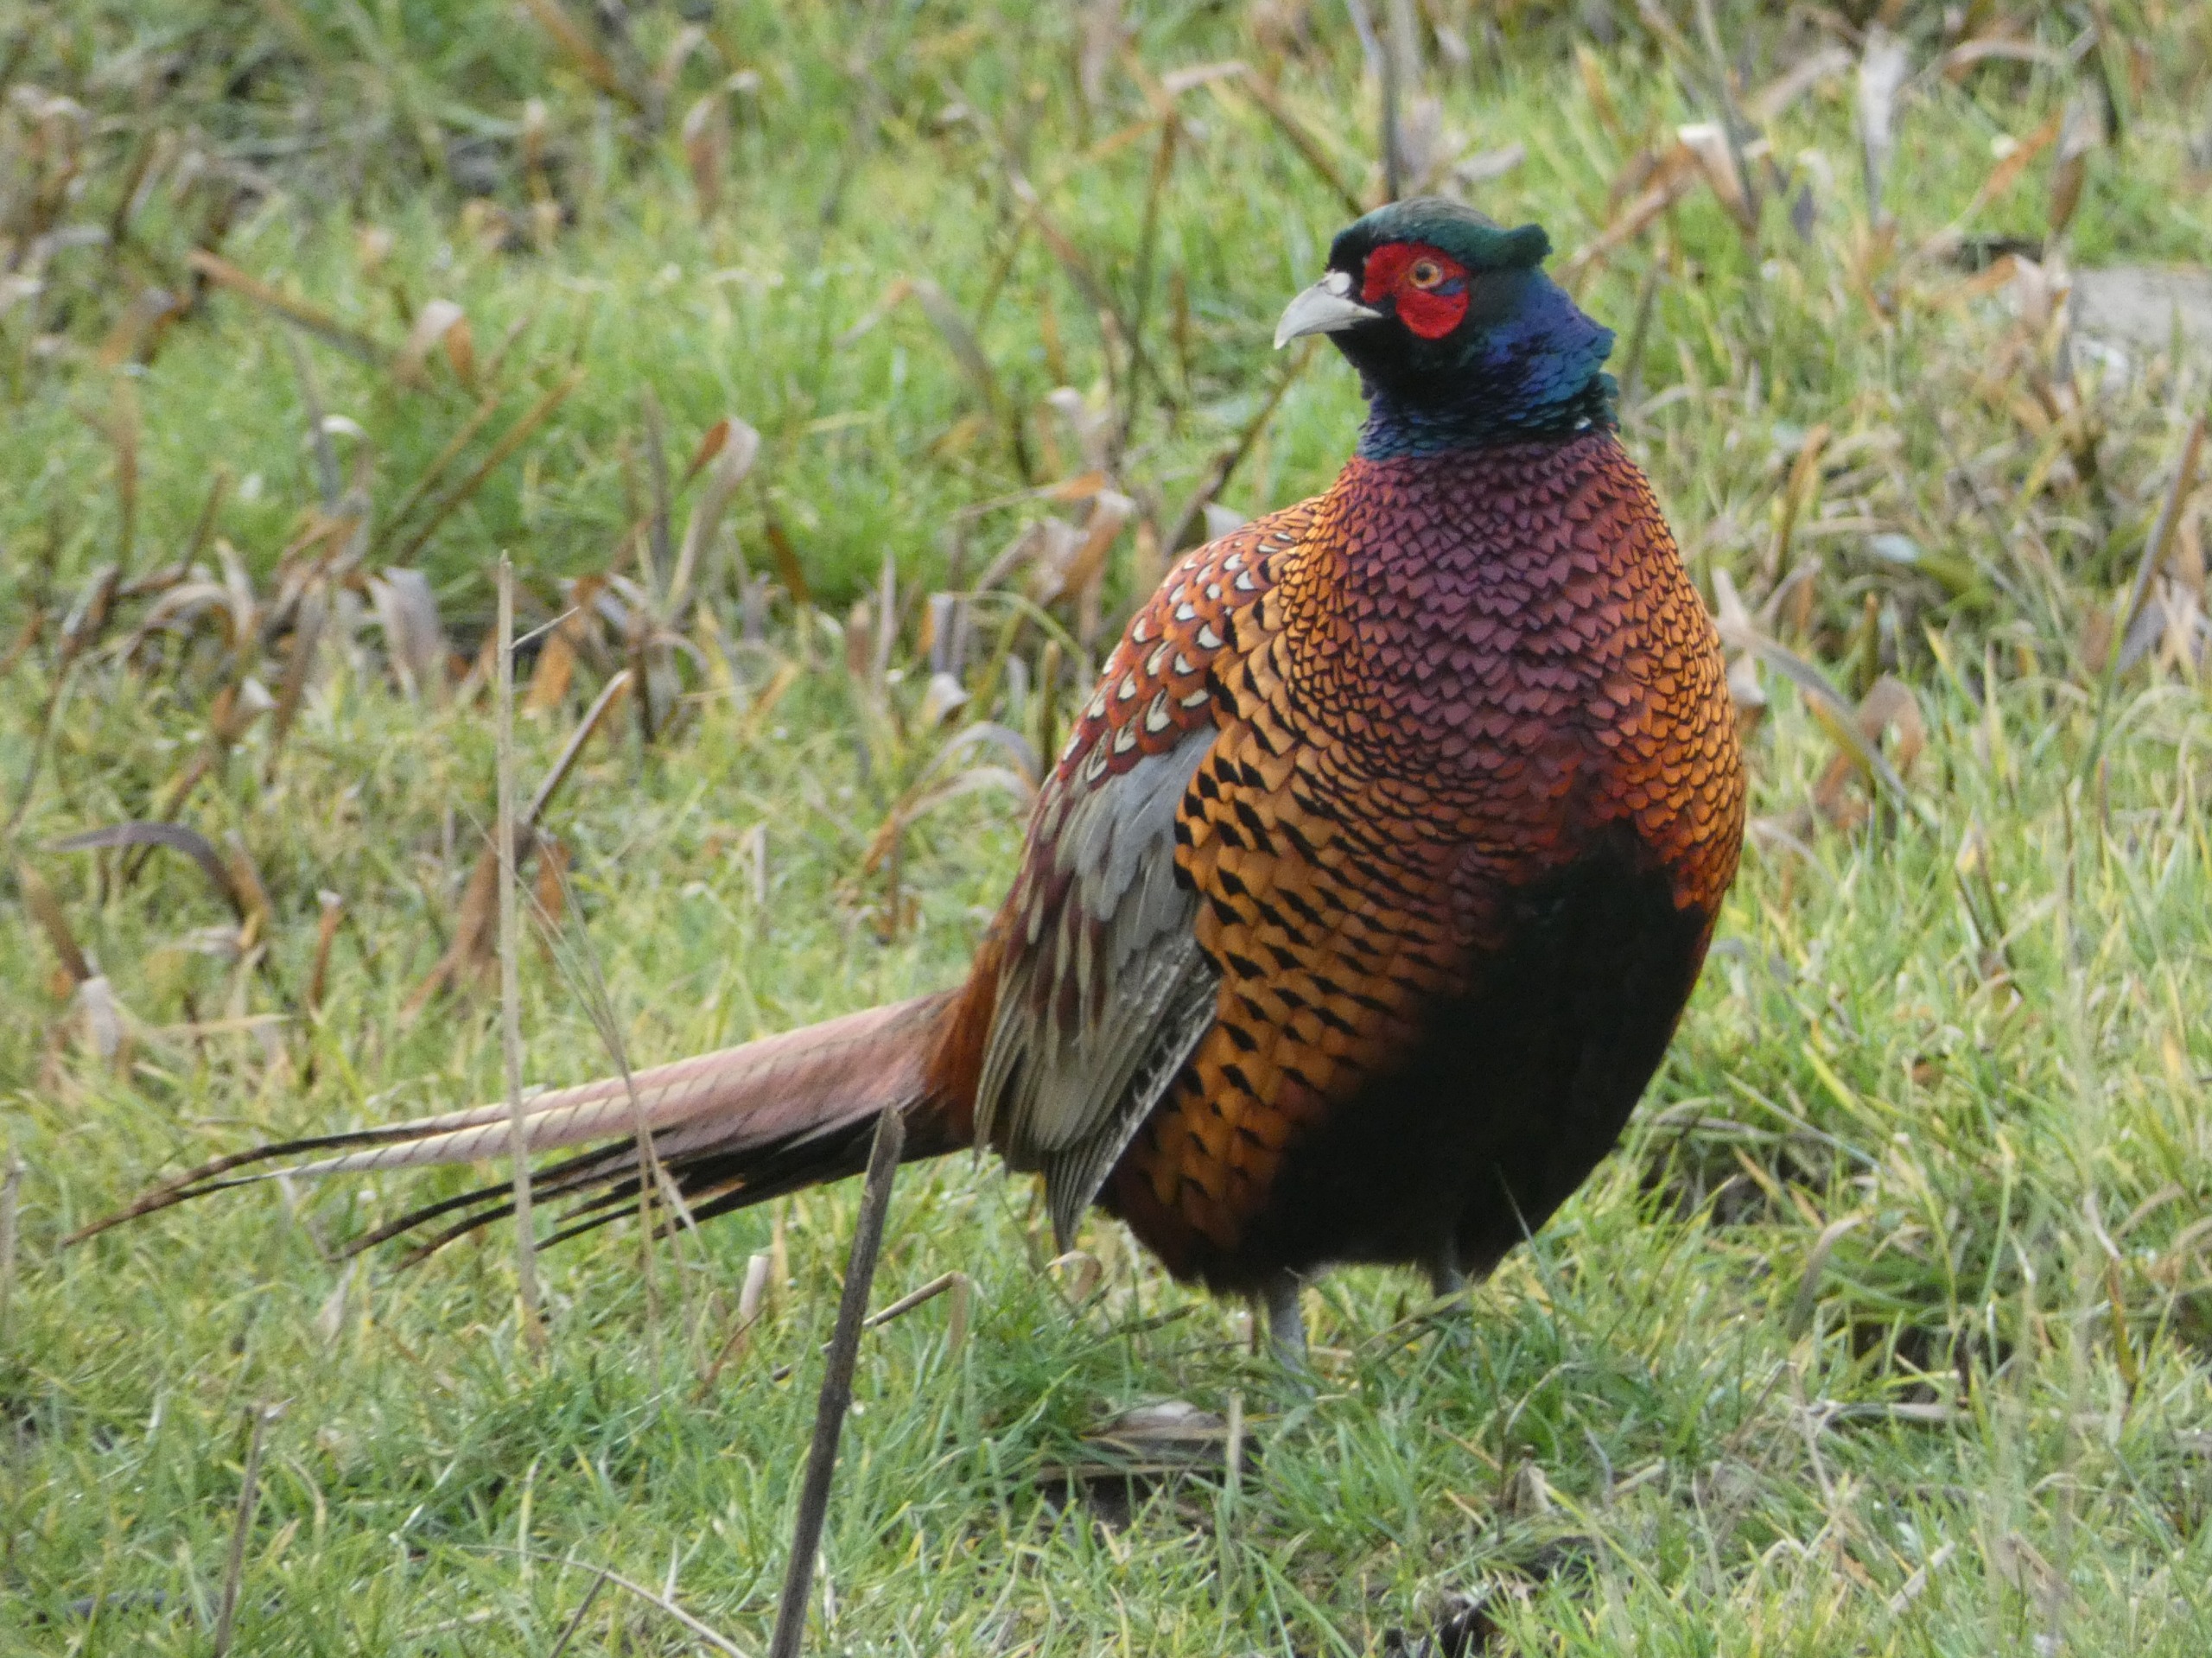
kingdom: Animalia
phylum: Chordata
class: Aves
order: Galliformes
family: Phasianidae
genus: Phasianus
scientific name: Phasianus colchicus
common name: Fasan
